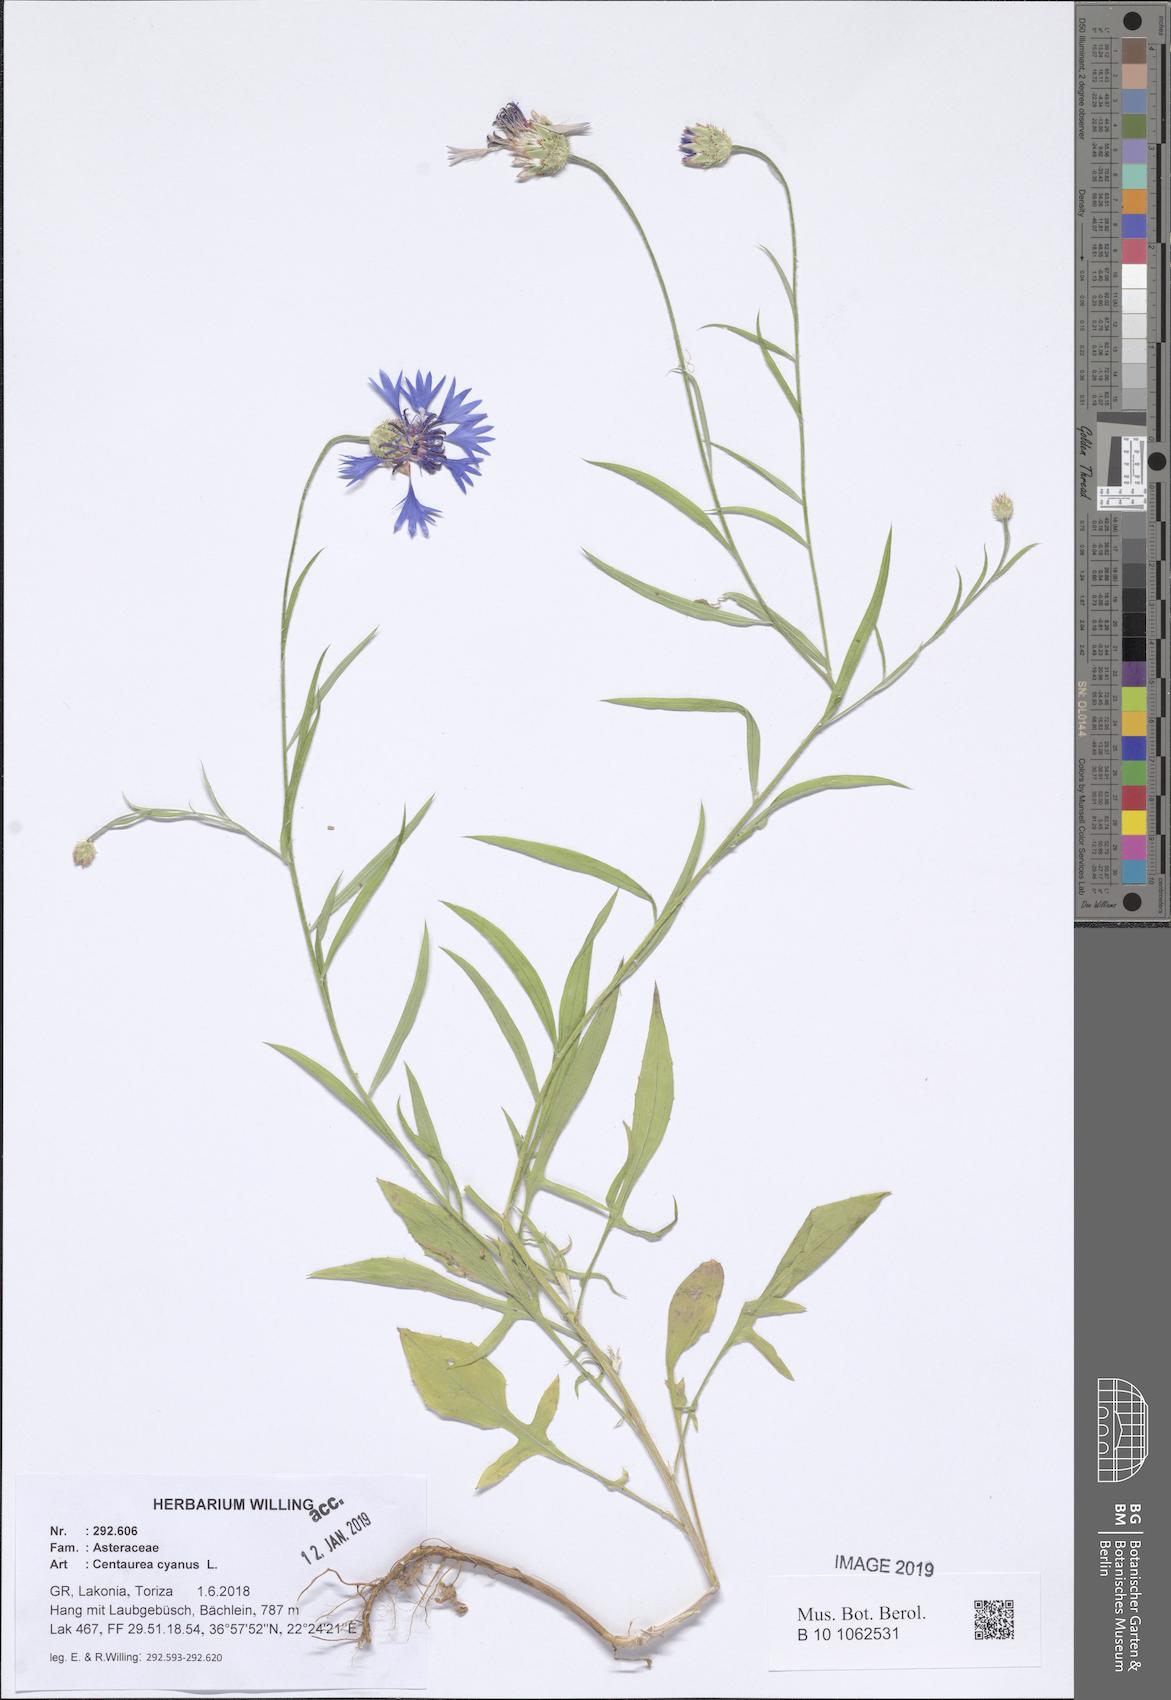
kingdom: Plantae
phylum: Tracheophyta
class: Magnoliopsida
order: Asterales
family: Asteraceae
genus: Centaurea
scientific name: Centaurea cyanus
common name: Cornflower
